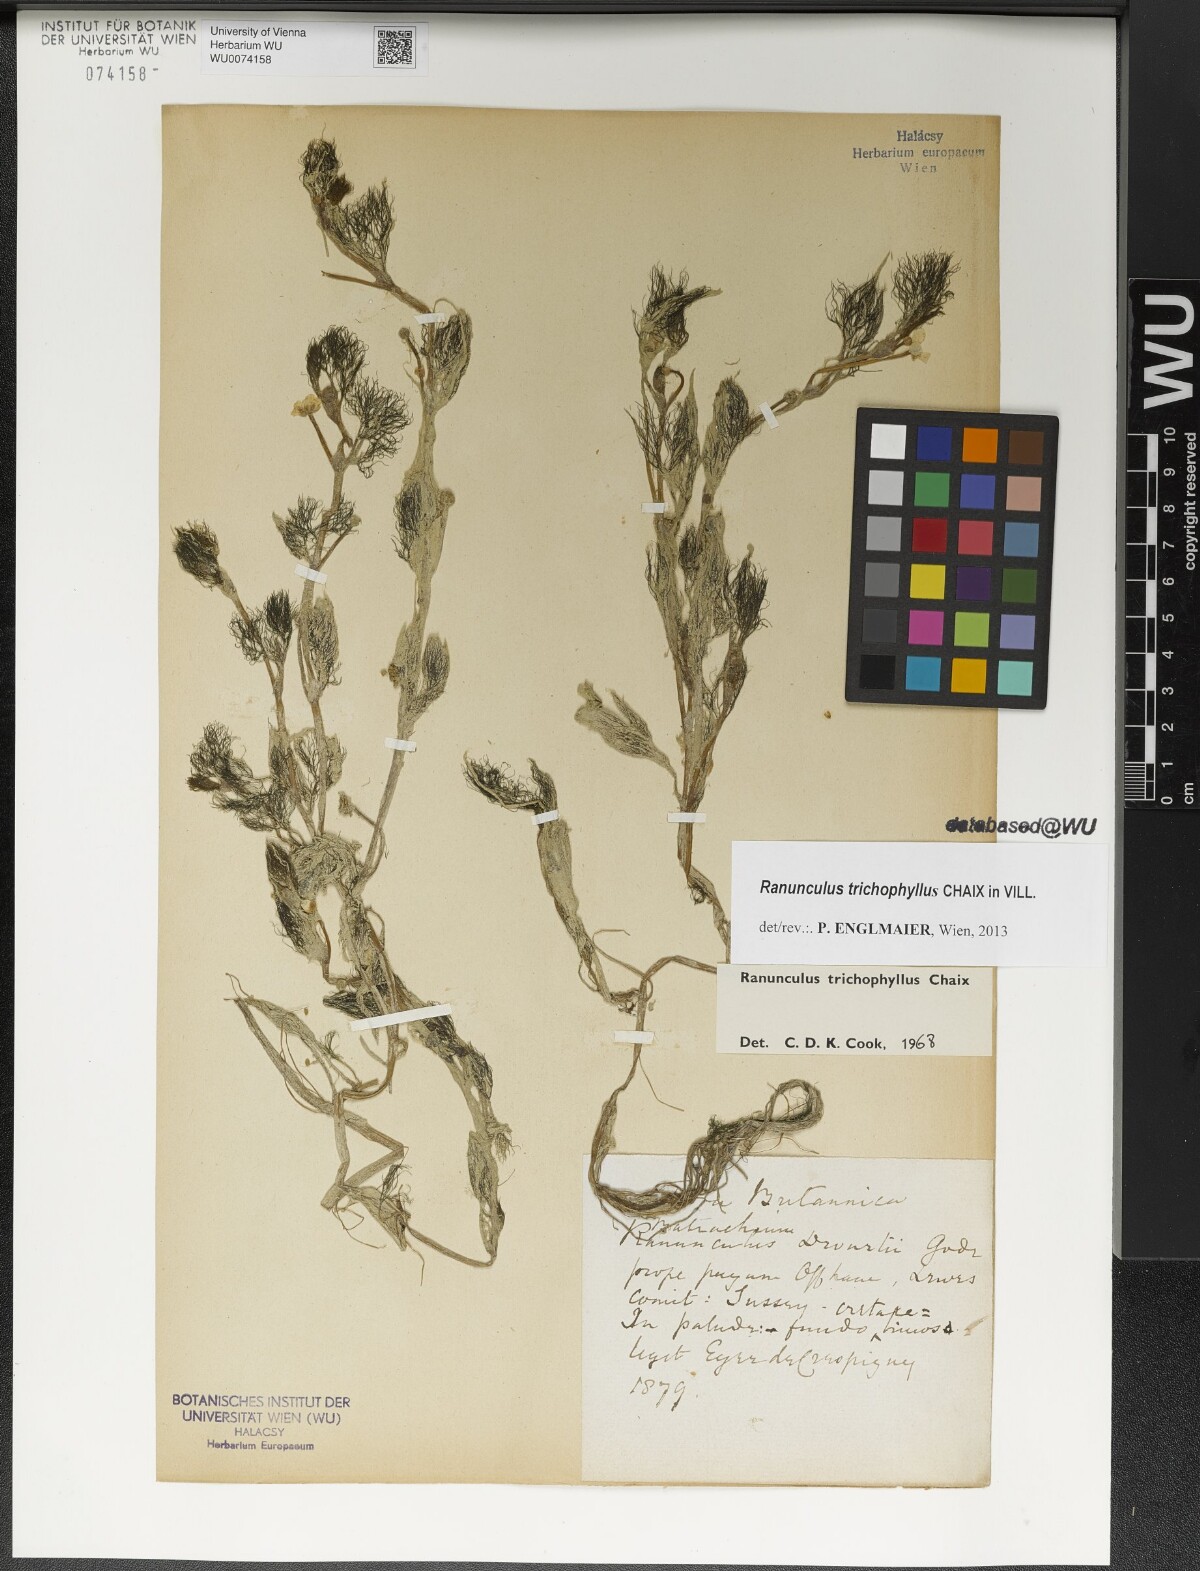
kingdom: Plantae
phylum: Tracheophyta
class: Magnoliopsida
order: Ranunculales
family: Ranunculaceae
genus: Ranunculus
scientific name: Ranunculus trichophyllus
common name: Thread-leaved water-crowfoot
